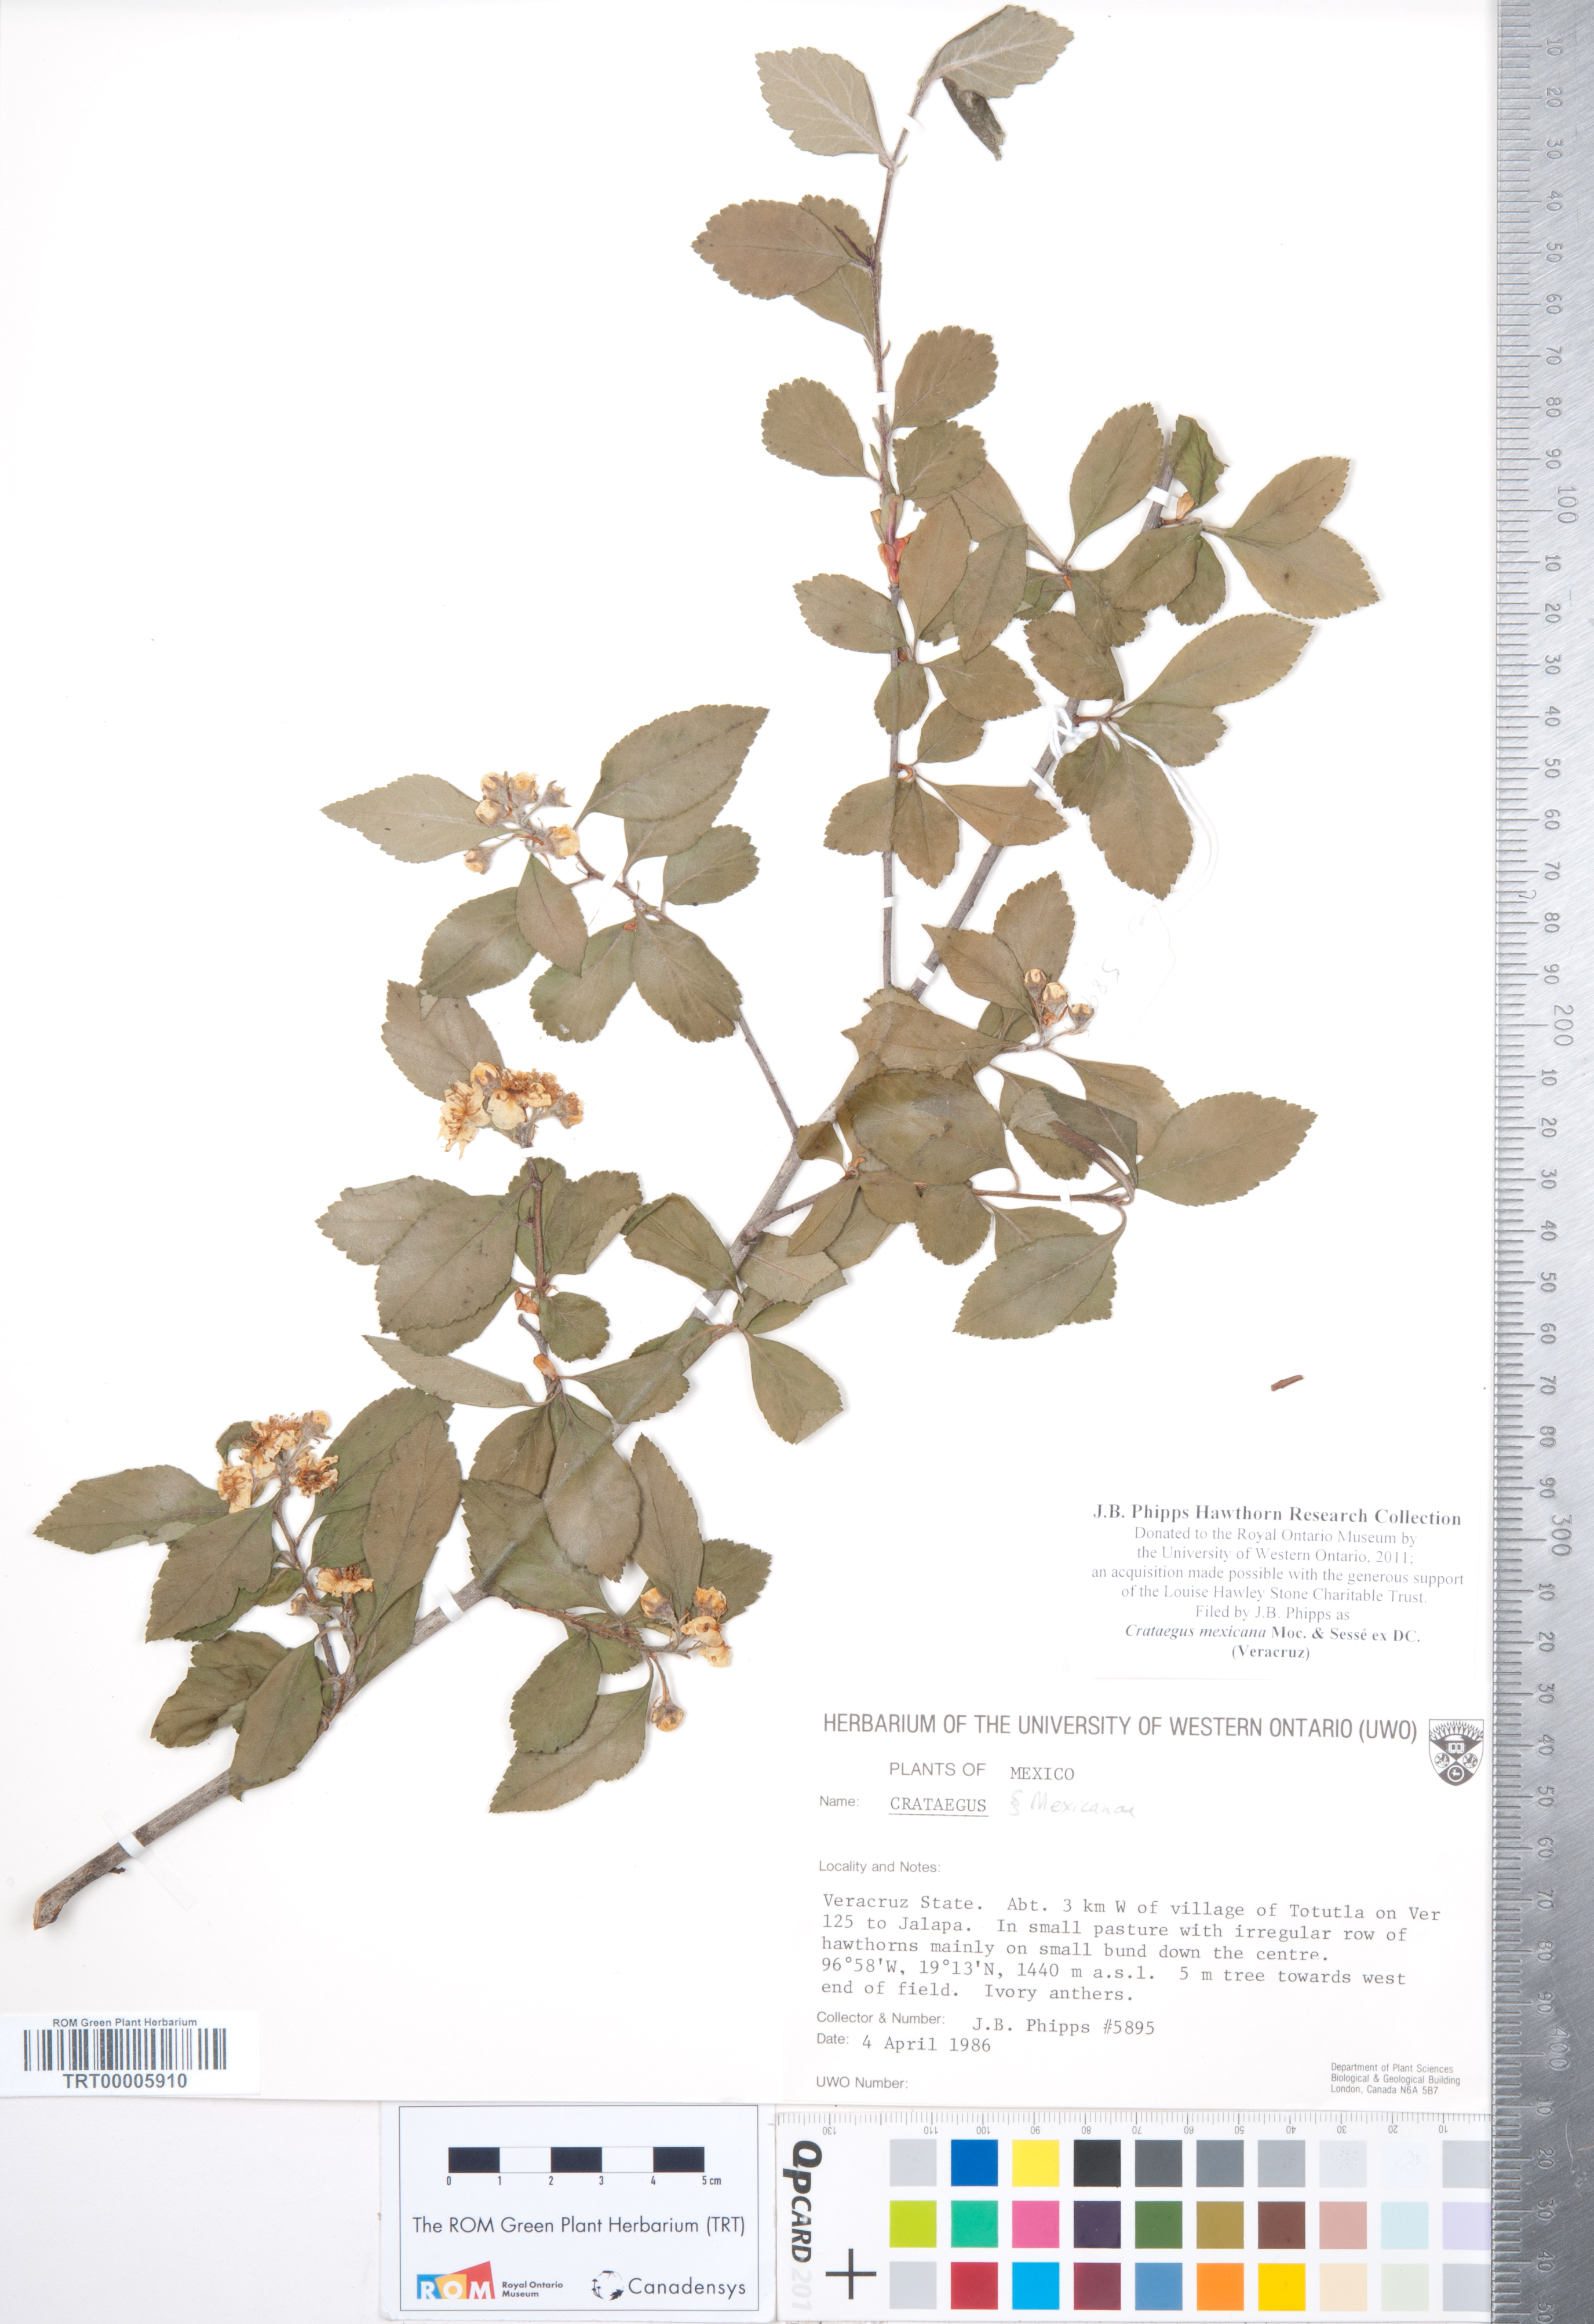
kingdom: Plantae
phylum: Tracheophyta
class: Magnoliopsida
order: Rosales
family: Rosaceae
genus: Crataegus
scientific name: Crataegus mexicana
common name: Mexican hawthorn
